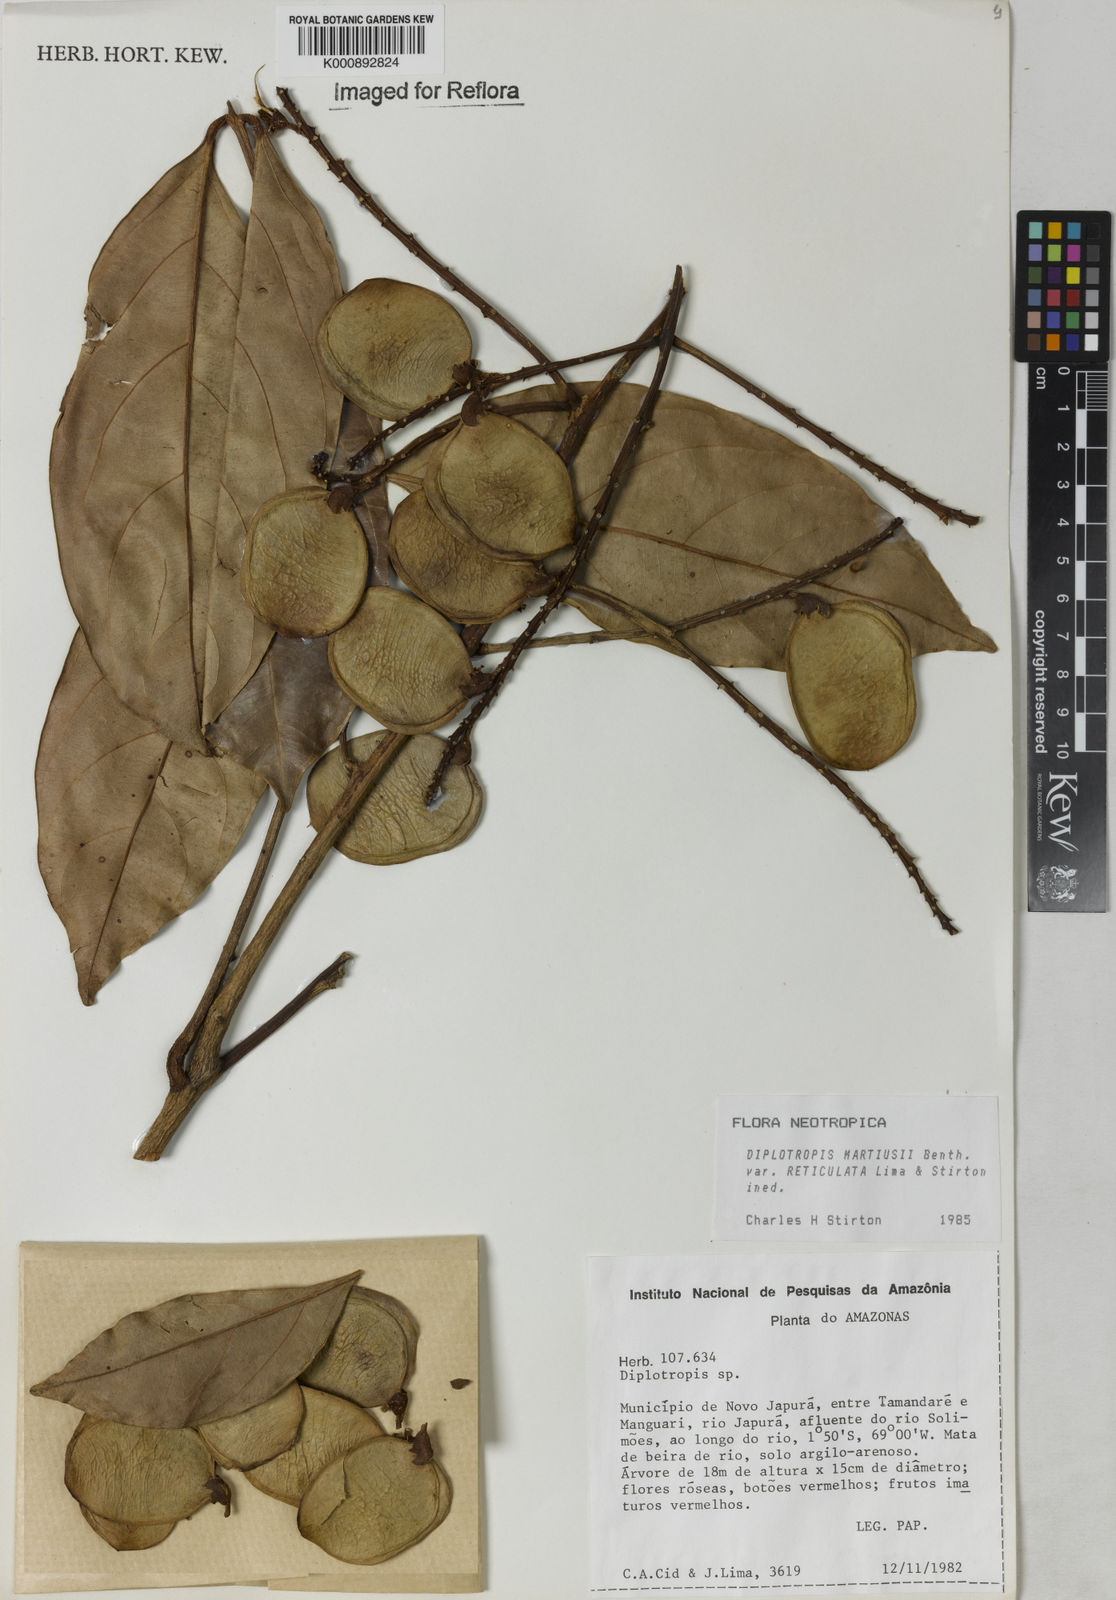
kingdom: Plantae
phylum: Tracheophyta
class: Magnoliopsida
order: Fabales
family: Fabaceae
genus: Diplotropis
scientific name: Diplotropis
